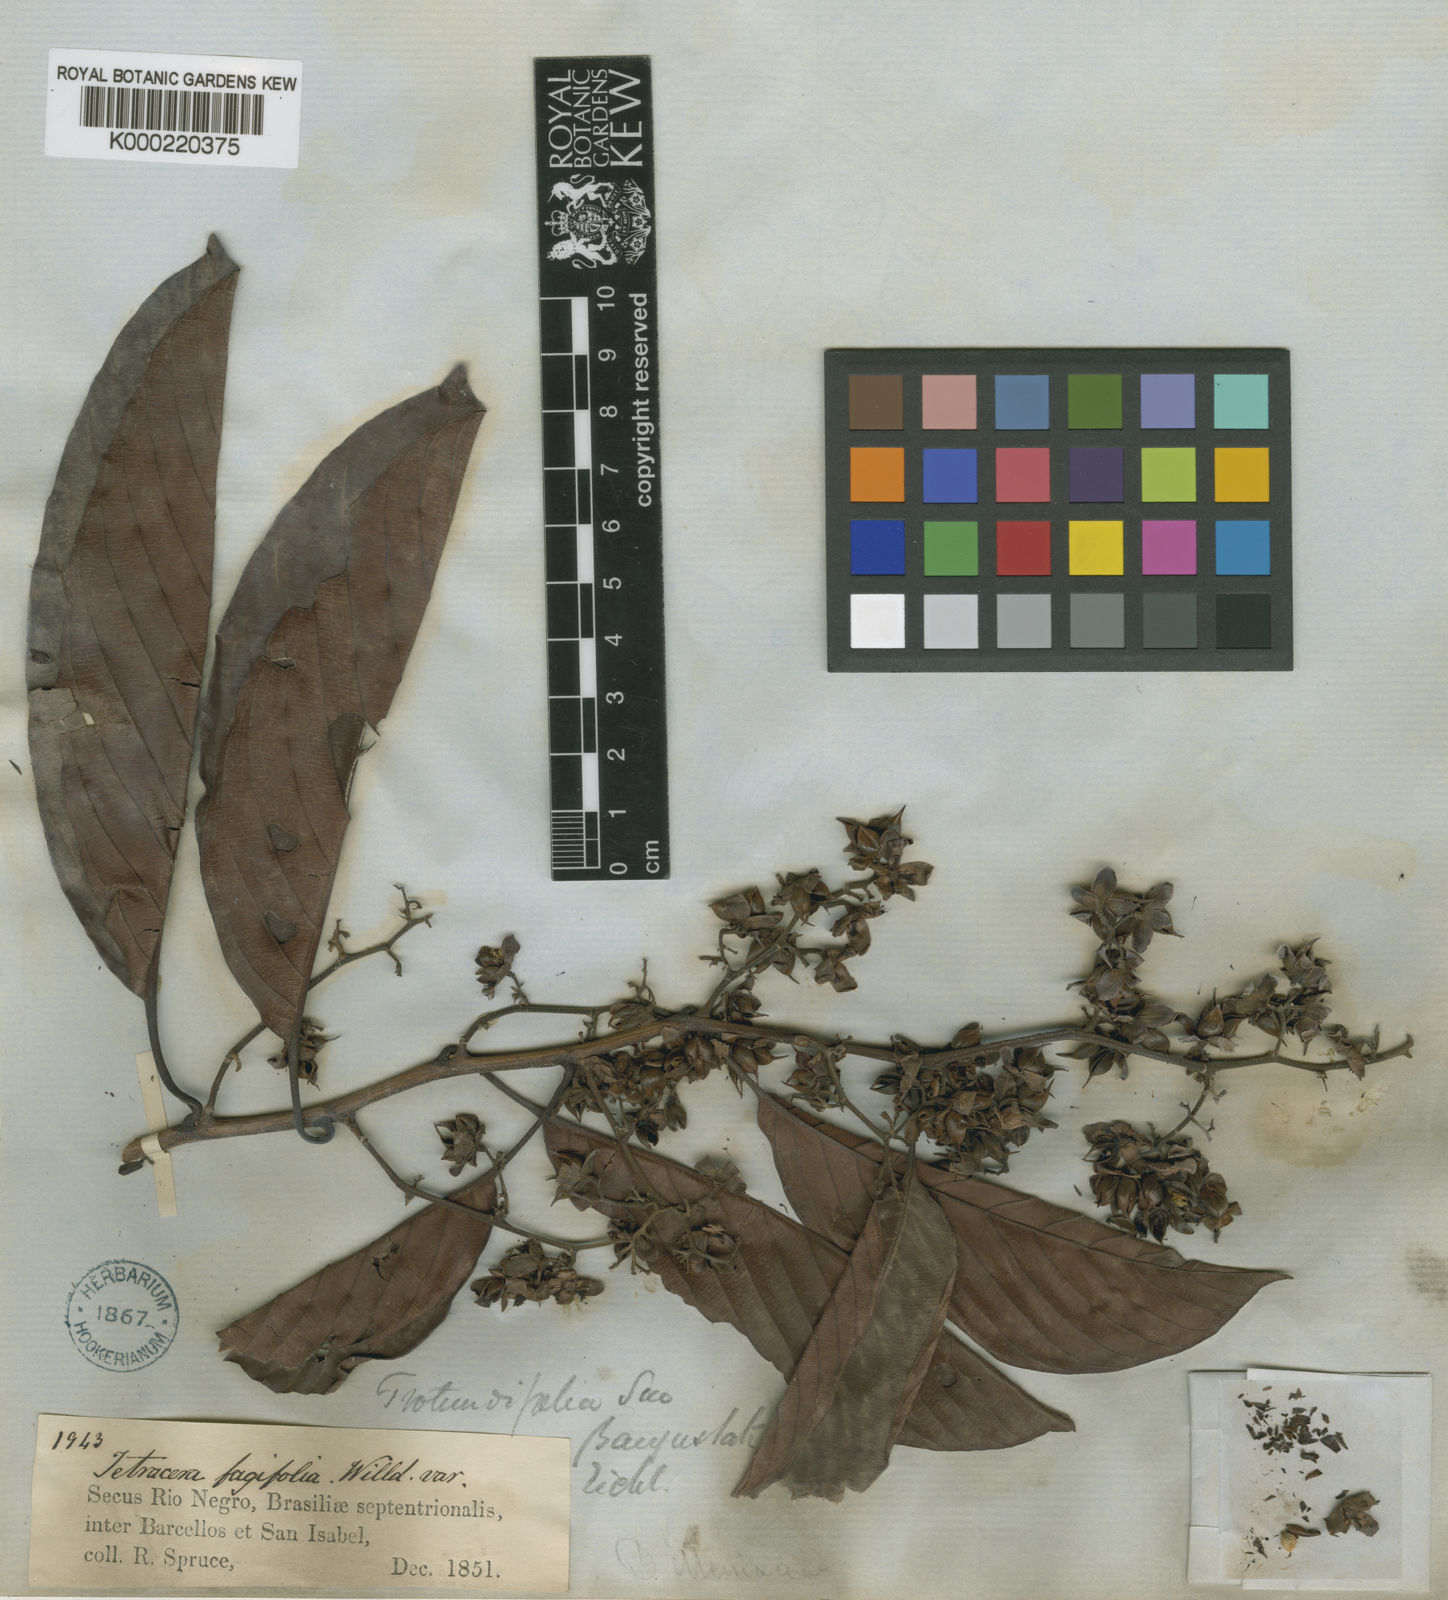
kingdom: Plantae
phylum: Tracheophyta
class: Magnoliopsida
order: Dilleniales
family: Dilleniaceae
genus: Tetracera
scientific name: Tetracera willdenowiana
